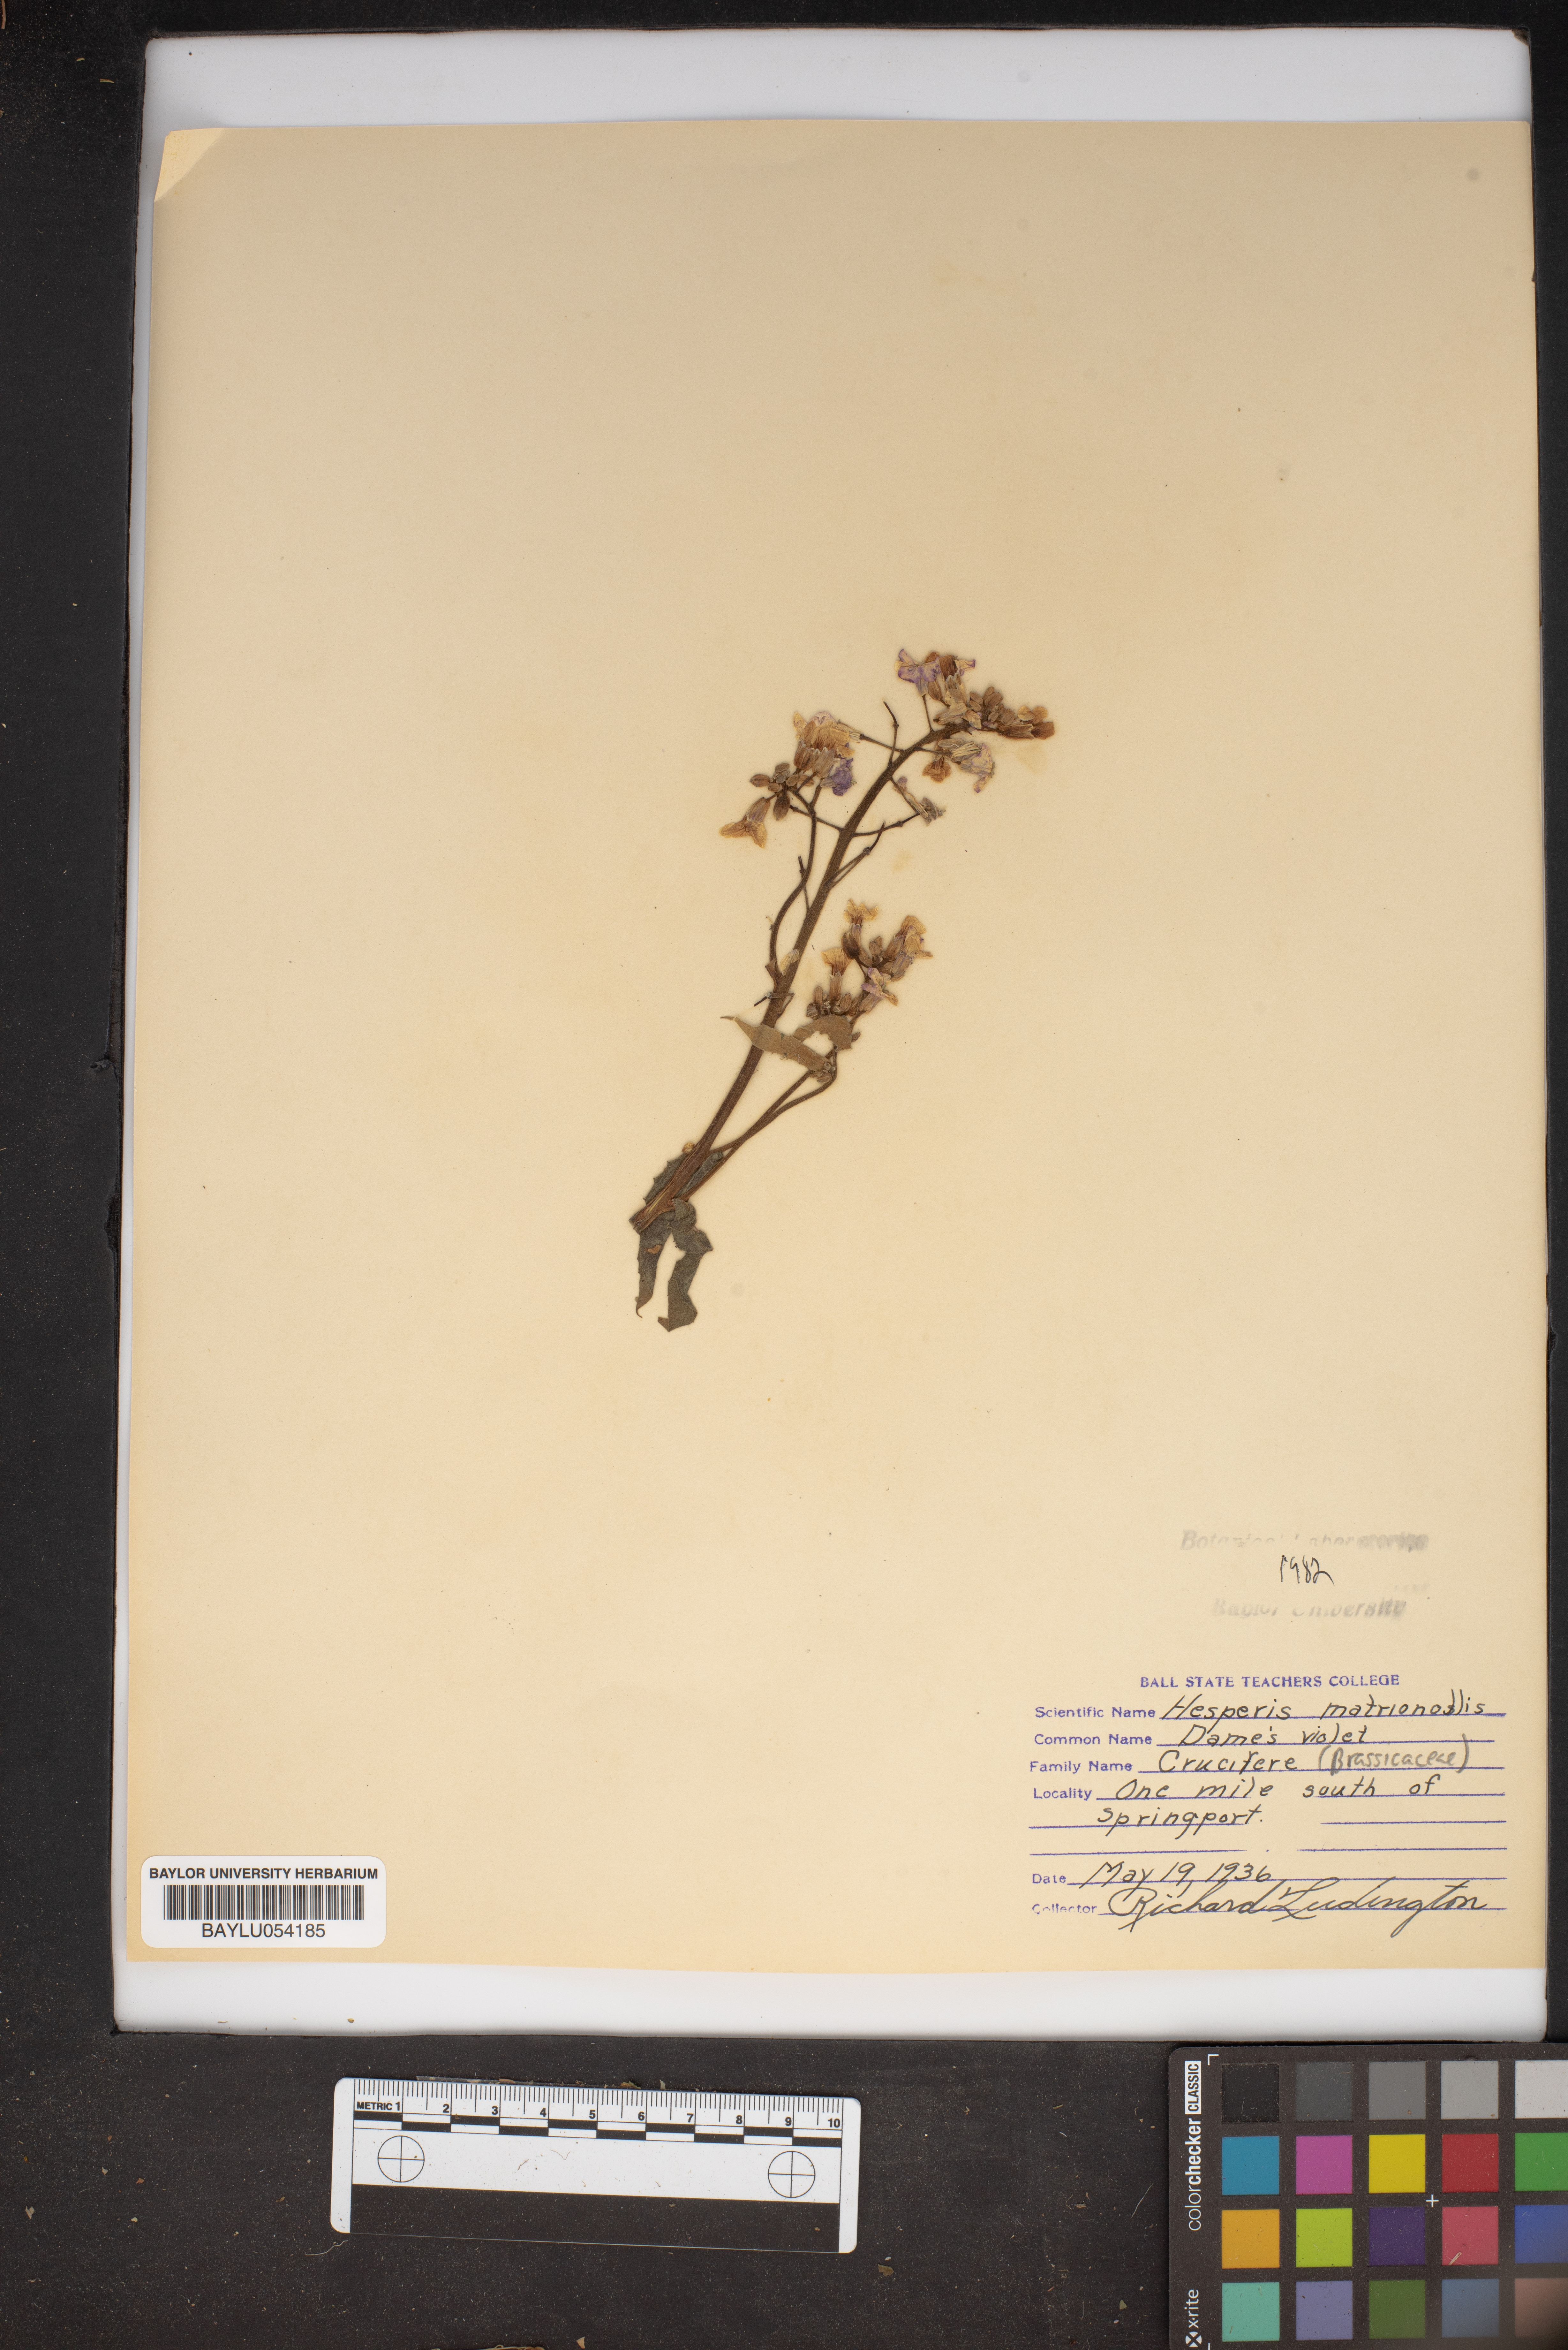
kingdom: Plantae
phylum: Tracheophyta
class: Magnoliopsida
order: Brassicales
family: Brassicaceae
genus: Hesperis
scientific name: Hesperis matronalis
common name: Dame's-violet
